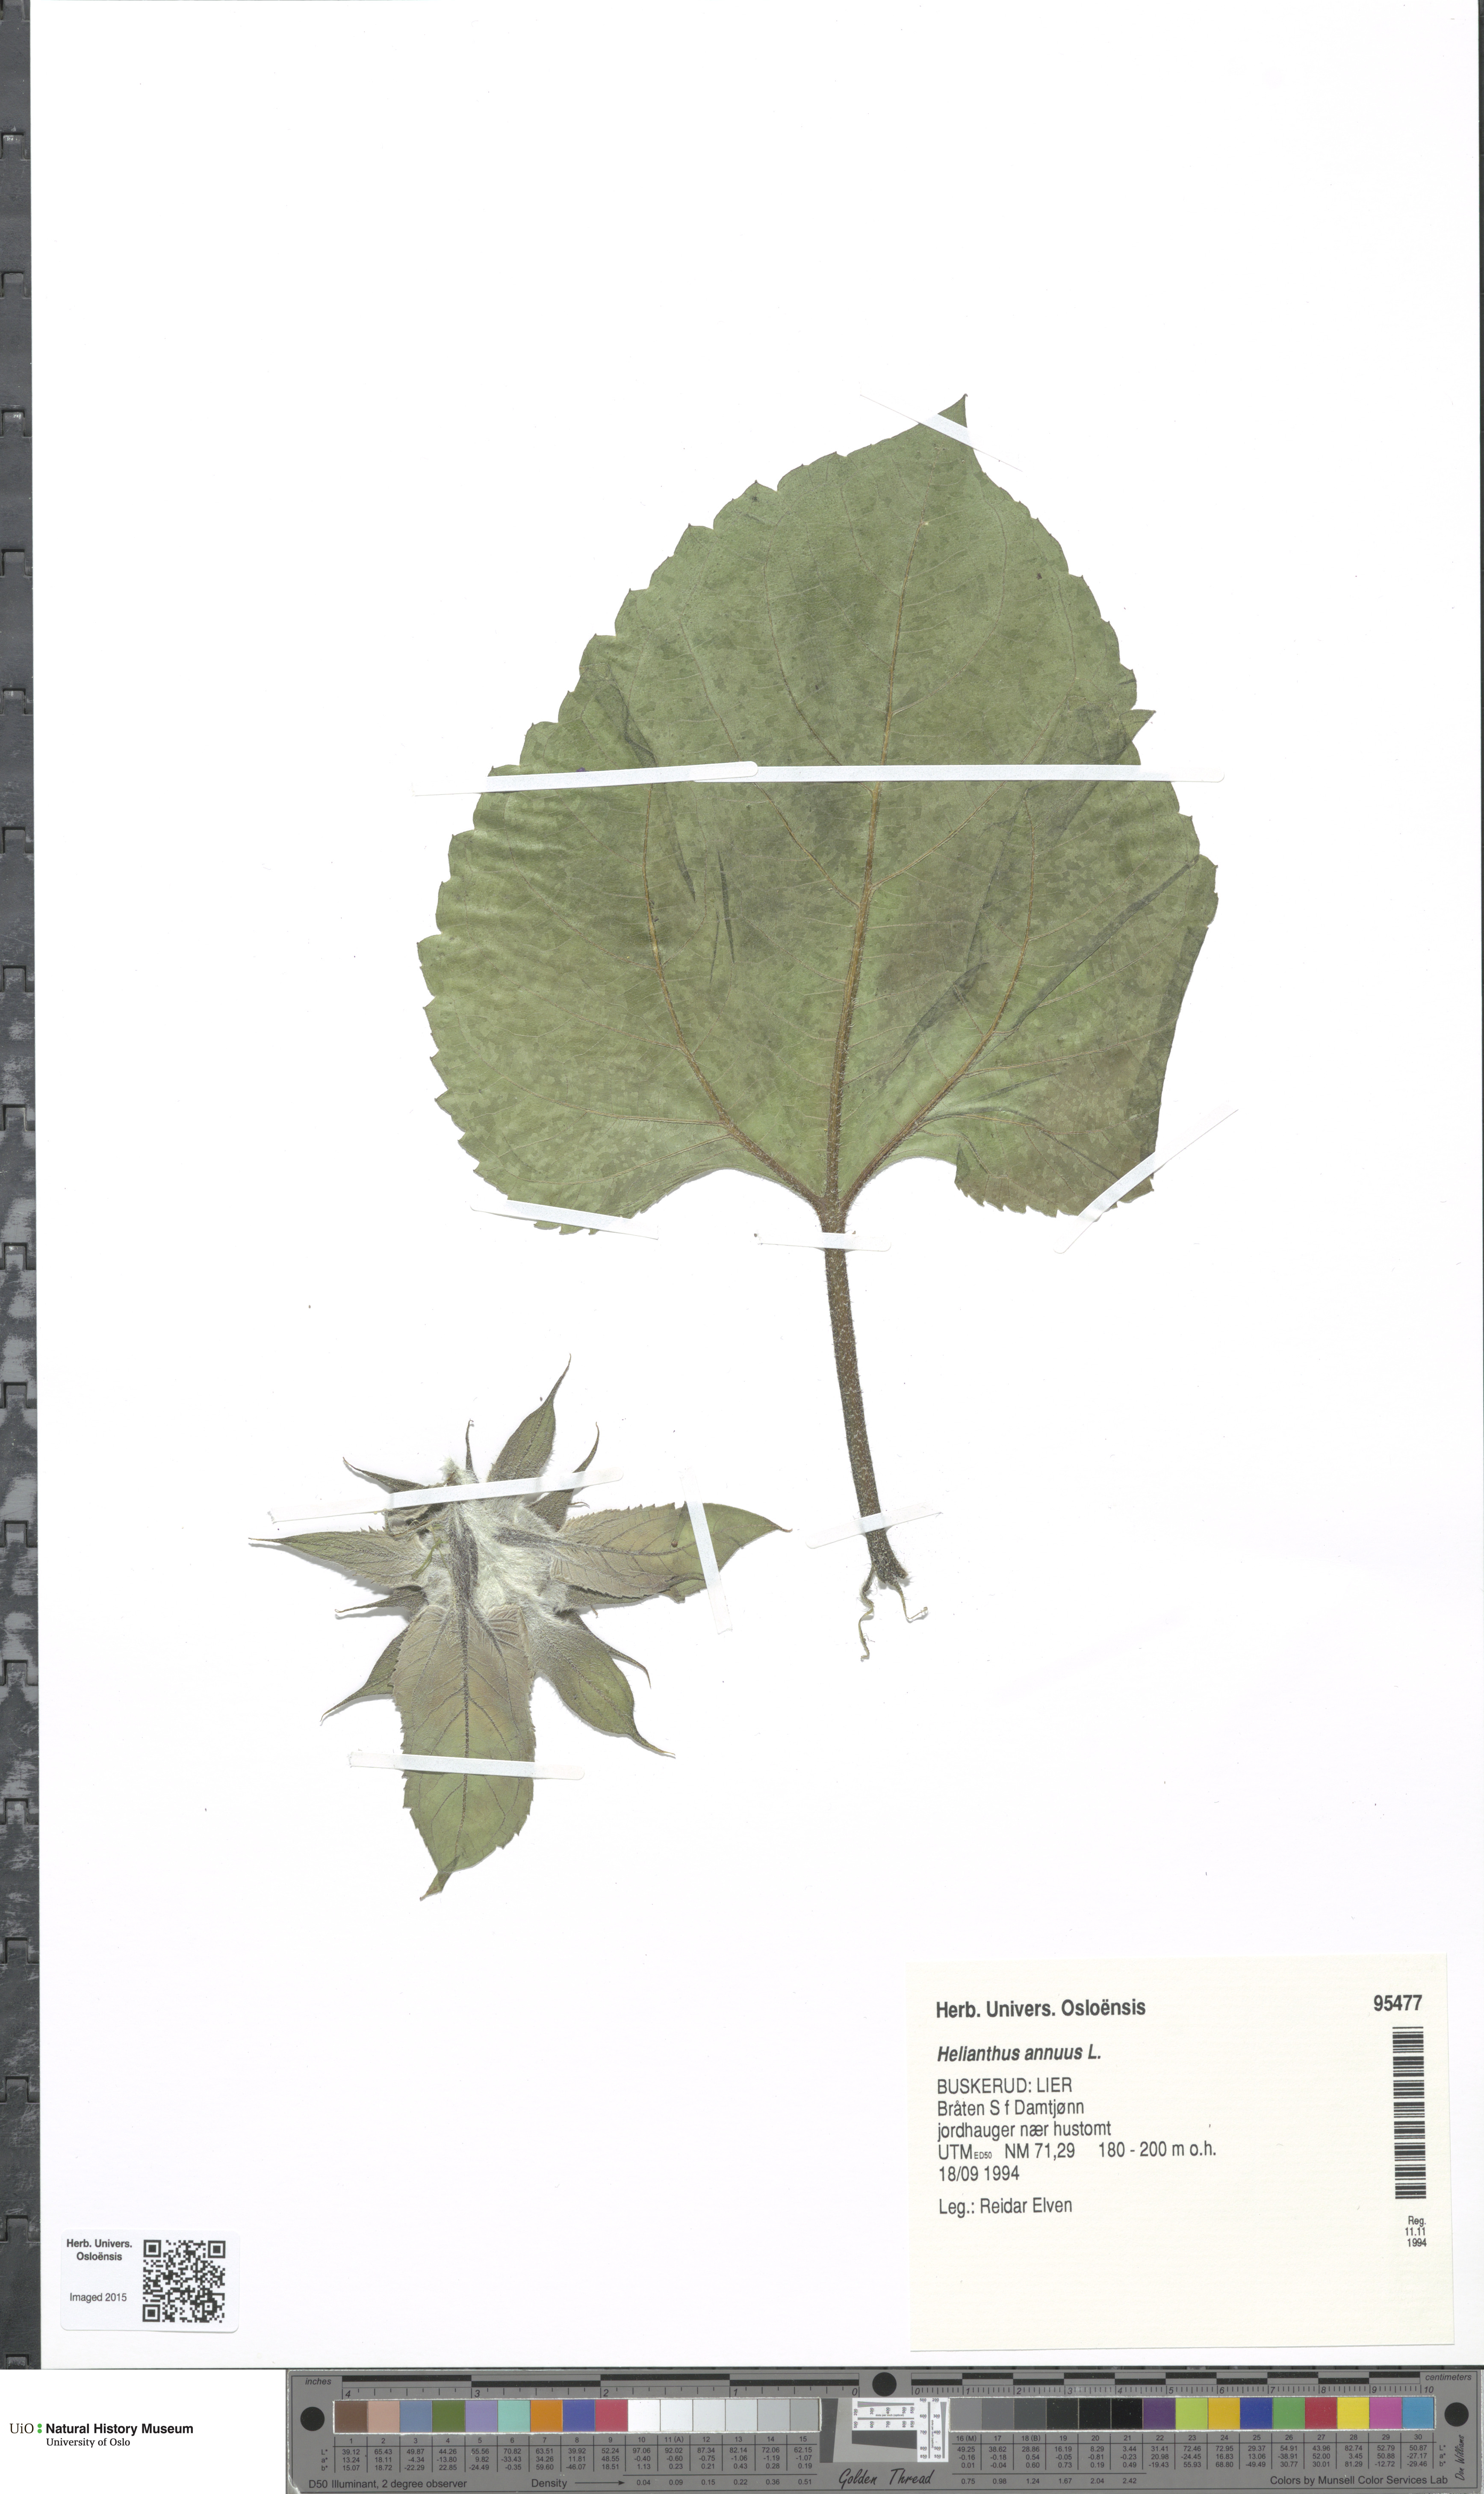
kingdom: Plantae
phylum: Tracheophyta
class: Magnoliopsida
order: Asterales
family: Asteraceae
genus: Helianthus
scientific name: Helianthus annuus
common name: Sunflower
